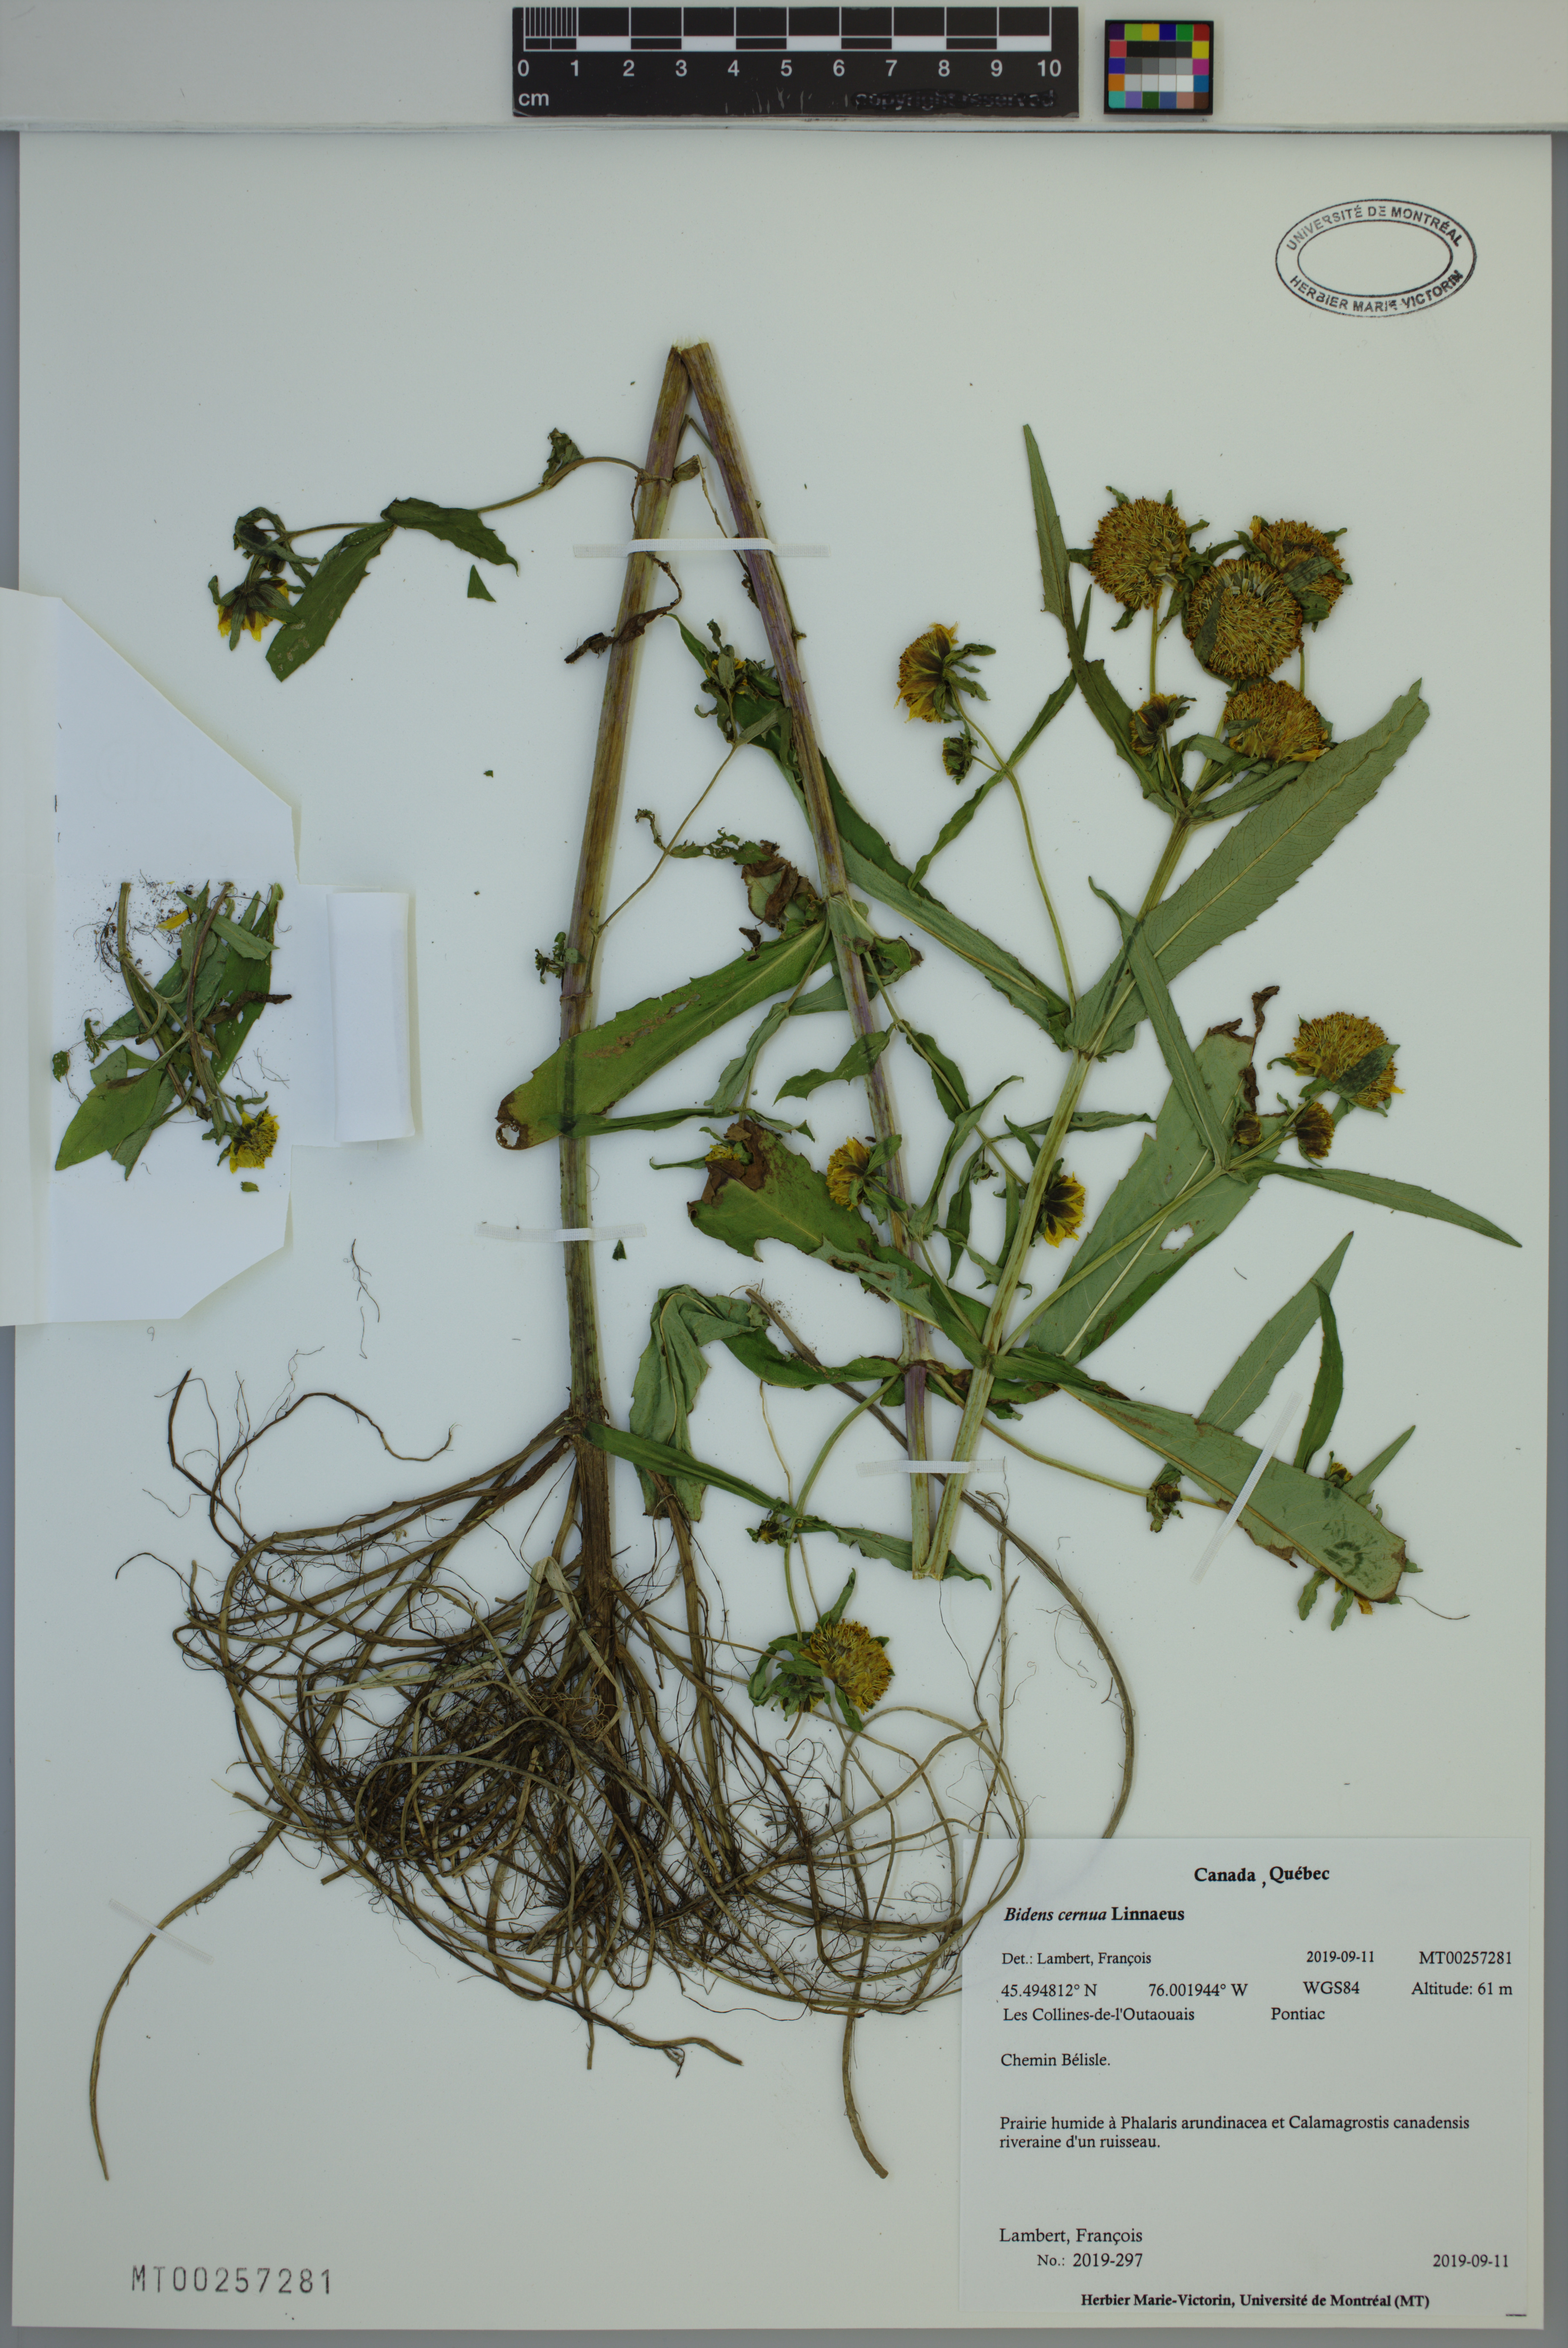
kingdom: Plantae
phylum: Tracheophyta
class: Magnoliopsida
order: Asterales
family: Asteraceae
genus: Bidens
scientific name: Bidens cernua
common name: Nodding bur-marigold
